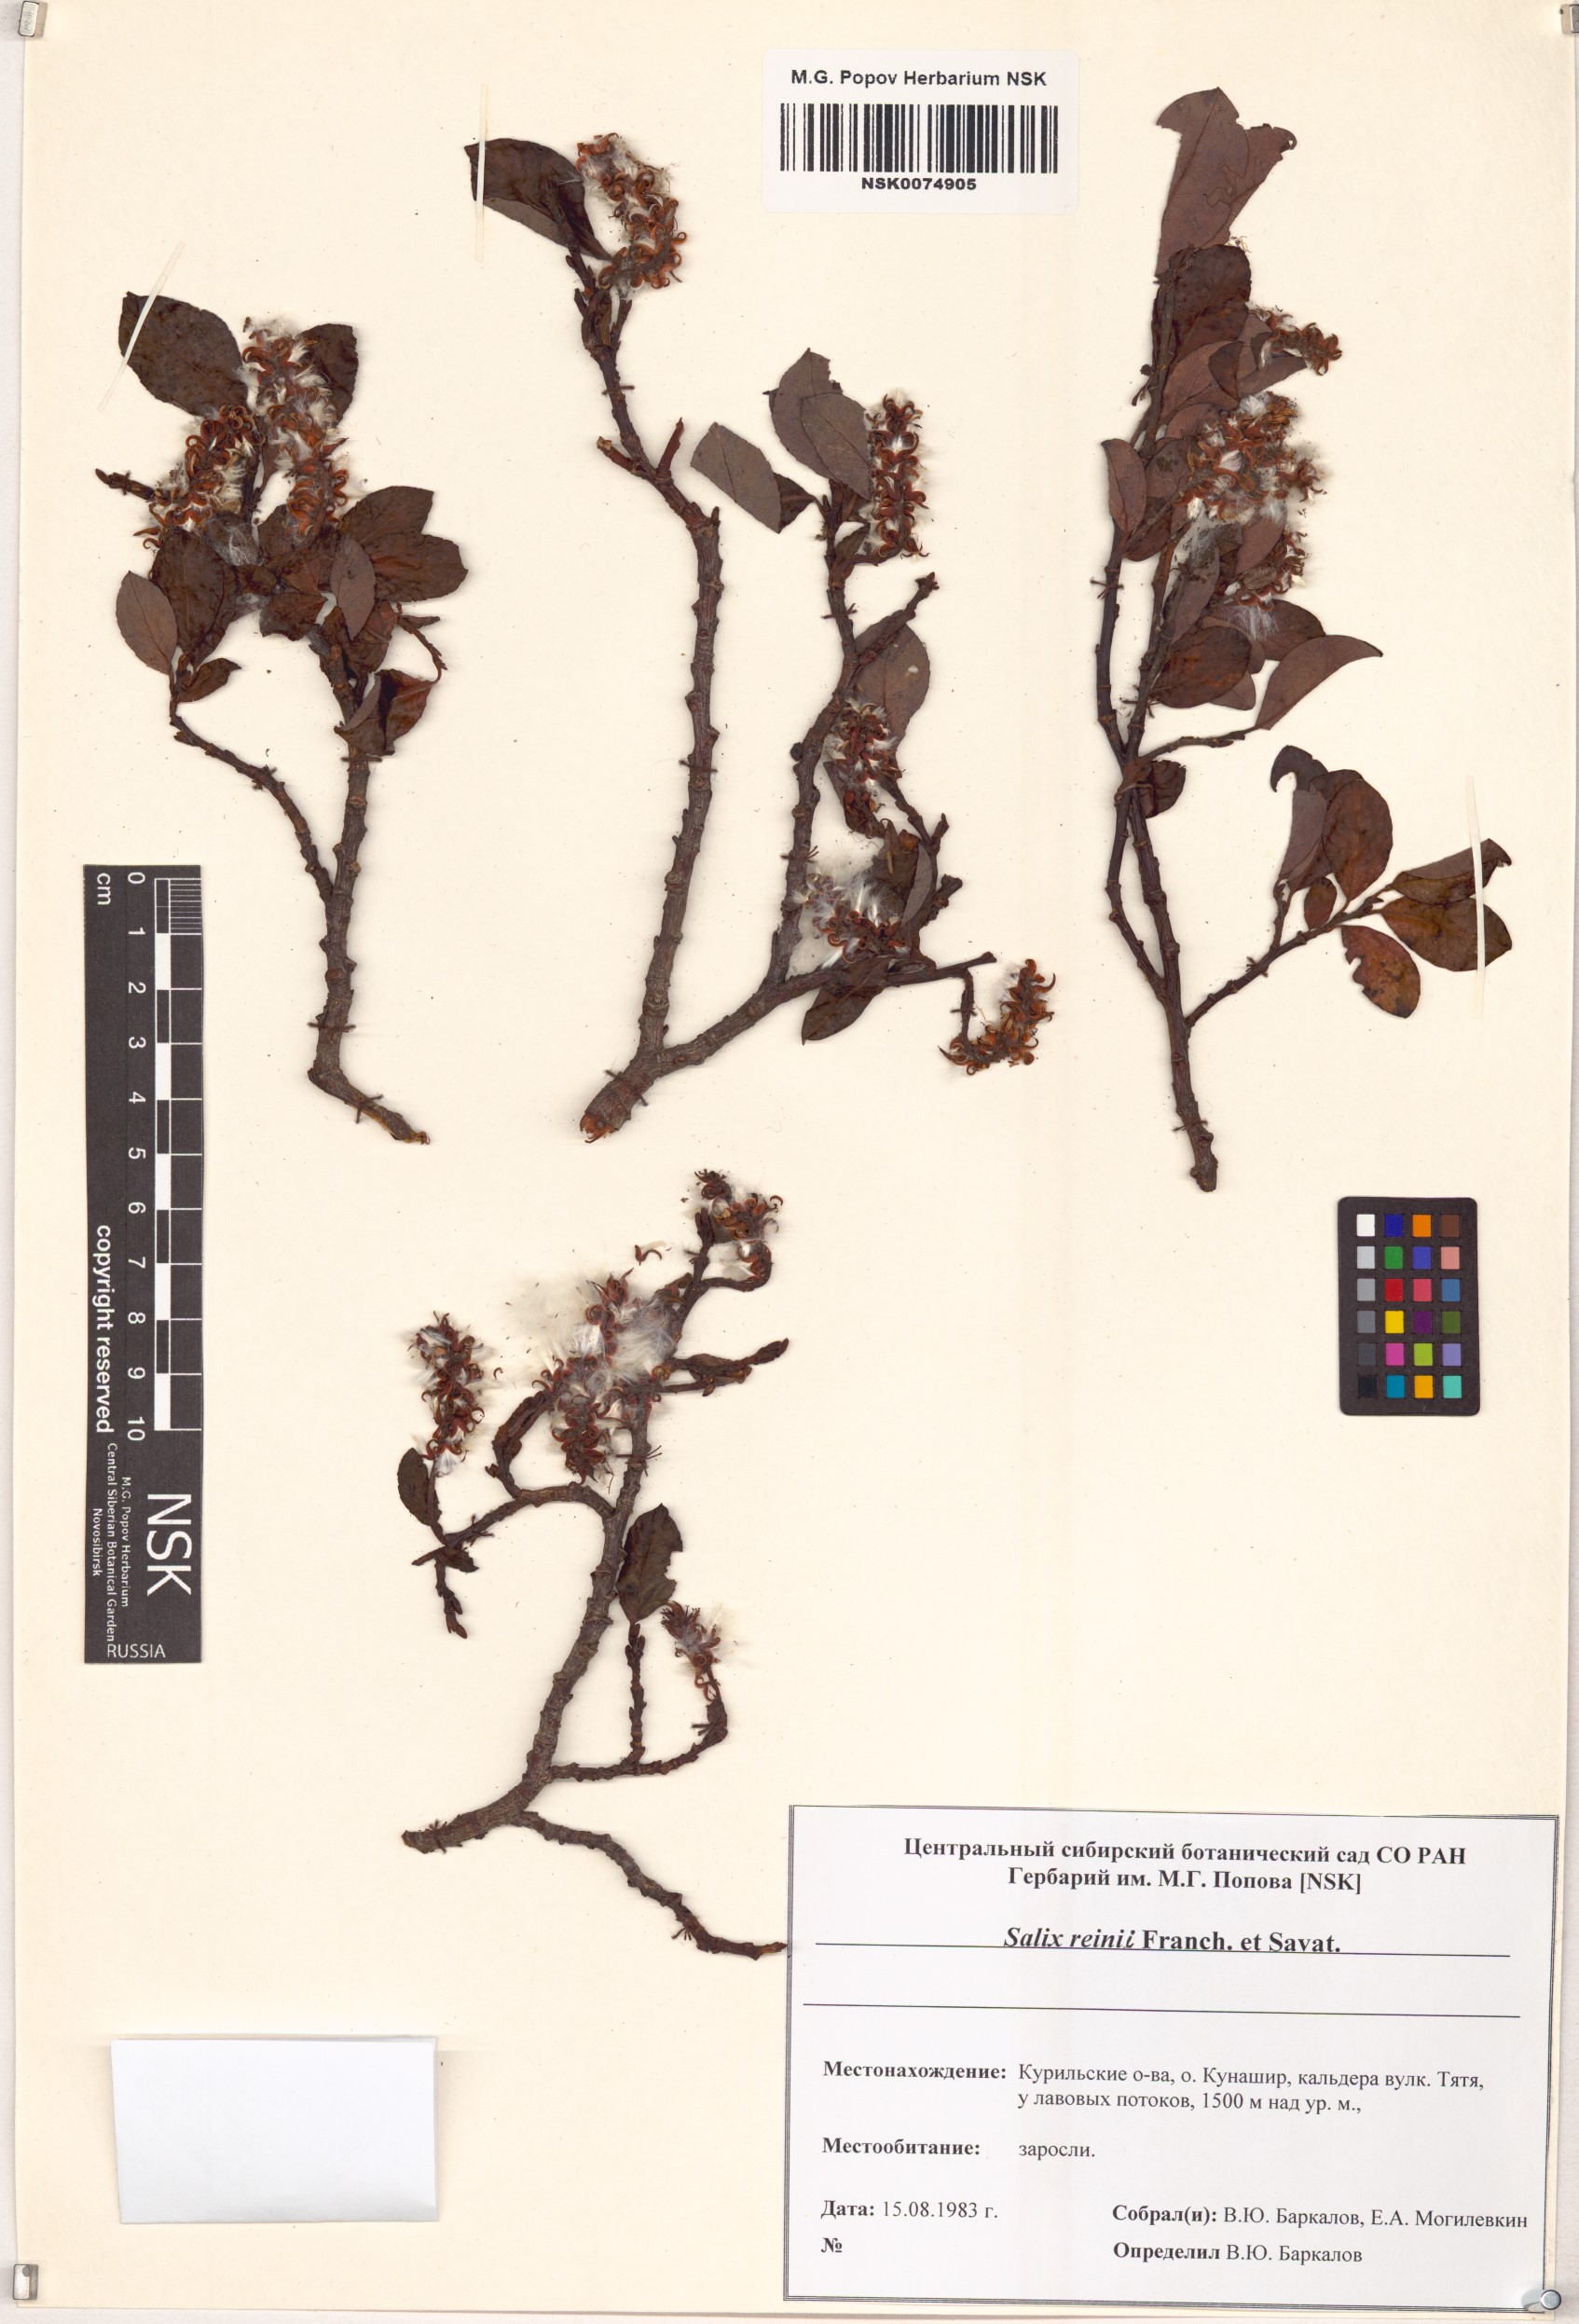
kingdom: Plantae
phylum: Tracheophyta
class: Magnoliopsida
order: Malpighiales
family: Salicaceae
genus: Salix
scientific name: Salix reinii
